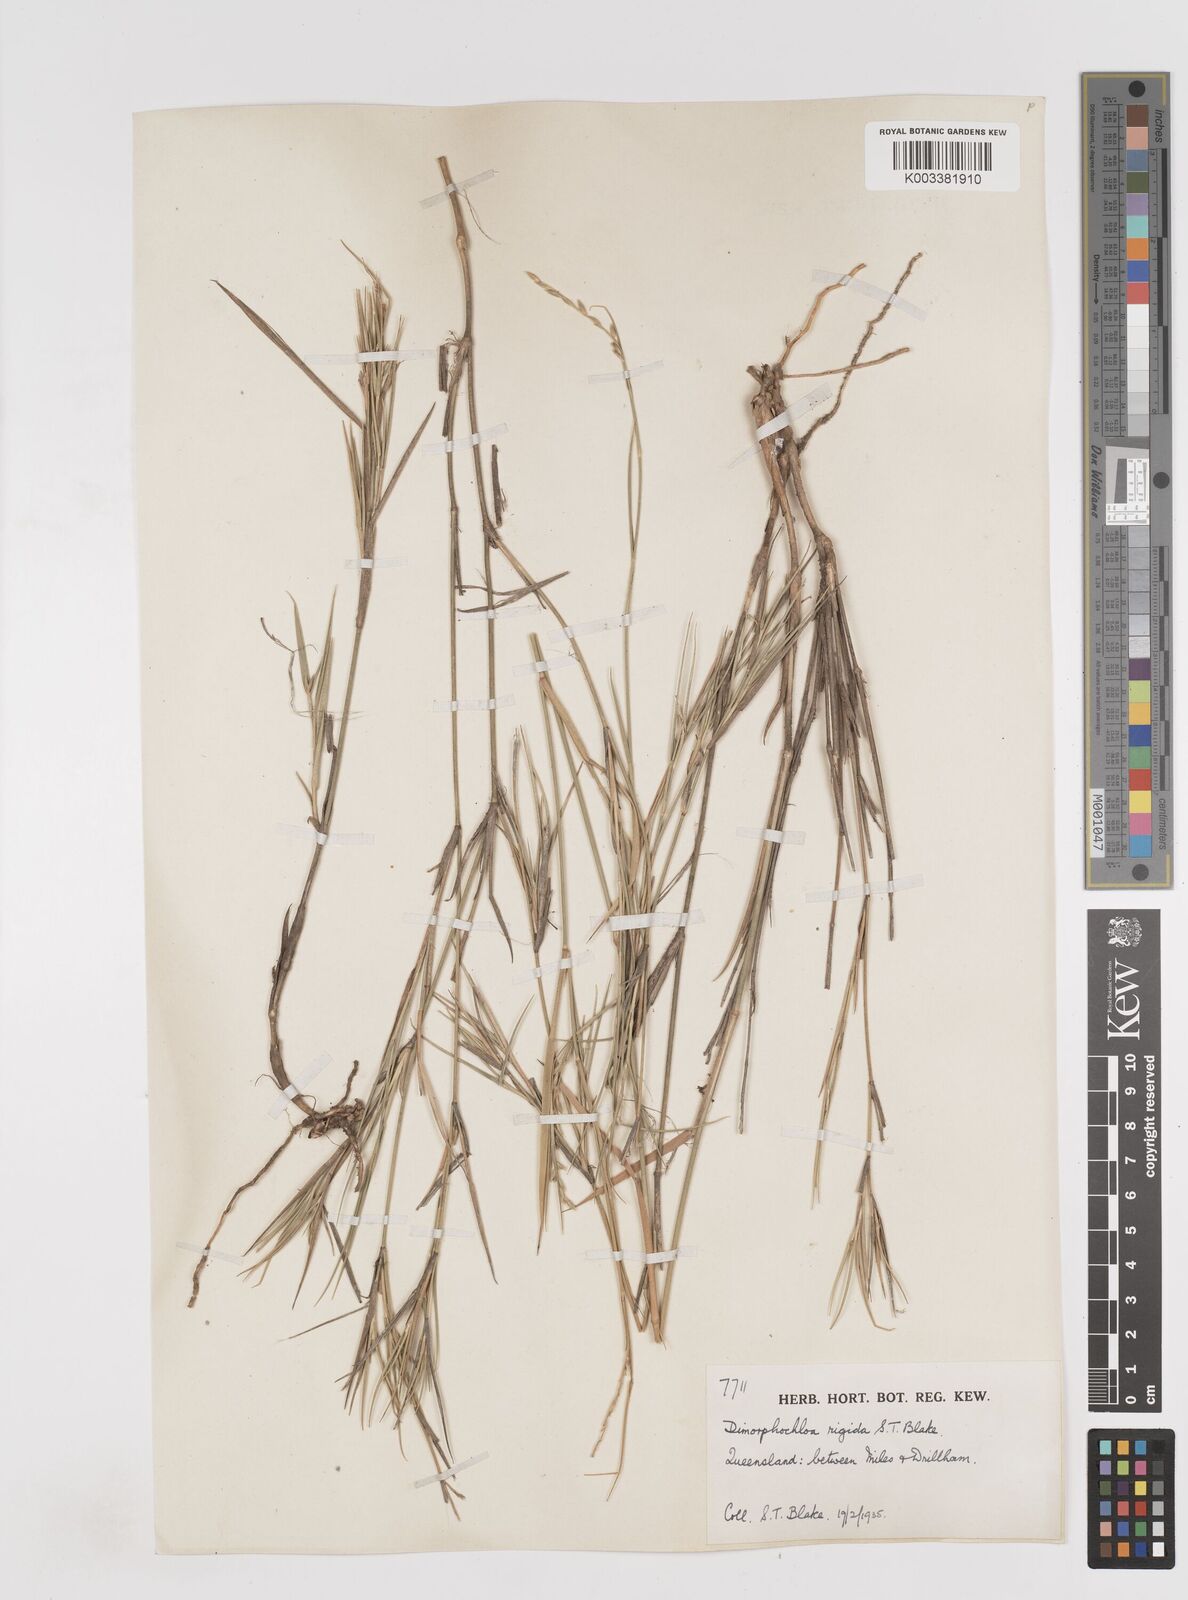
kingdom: Plantae
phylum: Tracheophyta
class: Liliopsida
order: Poales
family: Poaceae
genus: Dimorphochloa
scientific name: Dimorphochloa rigida
